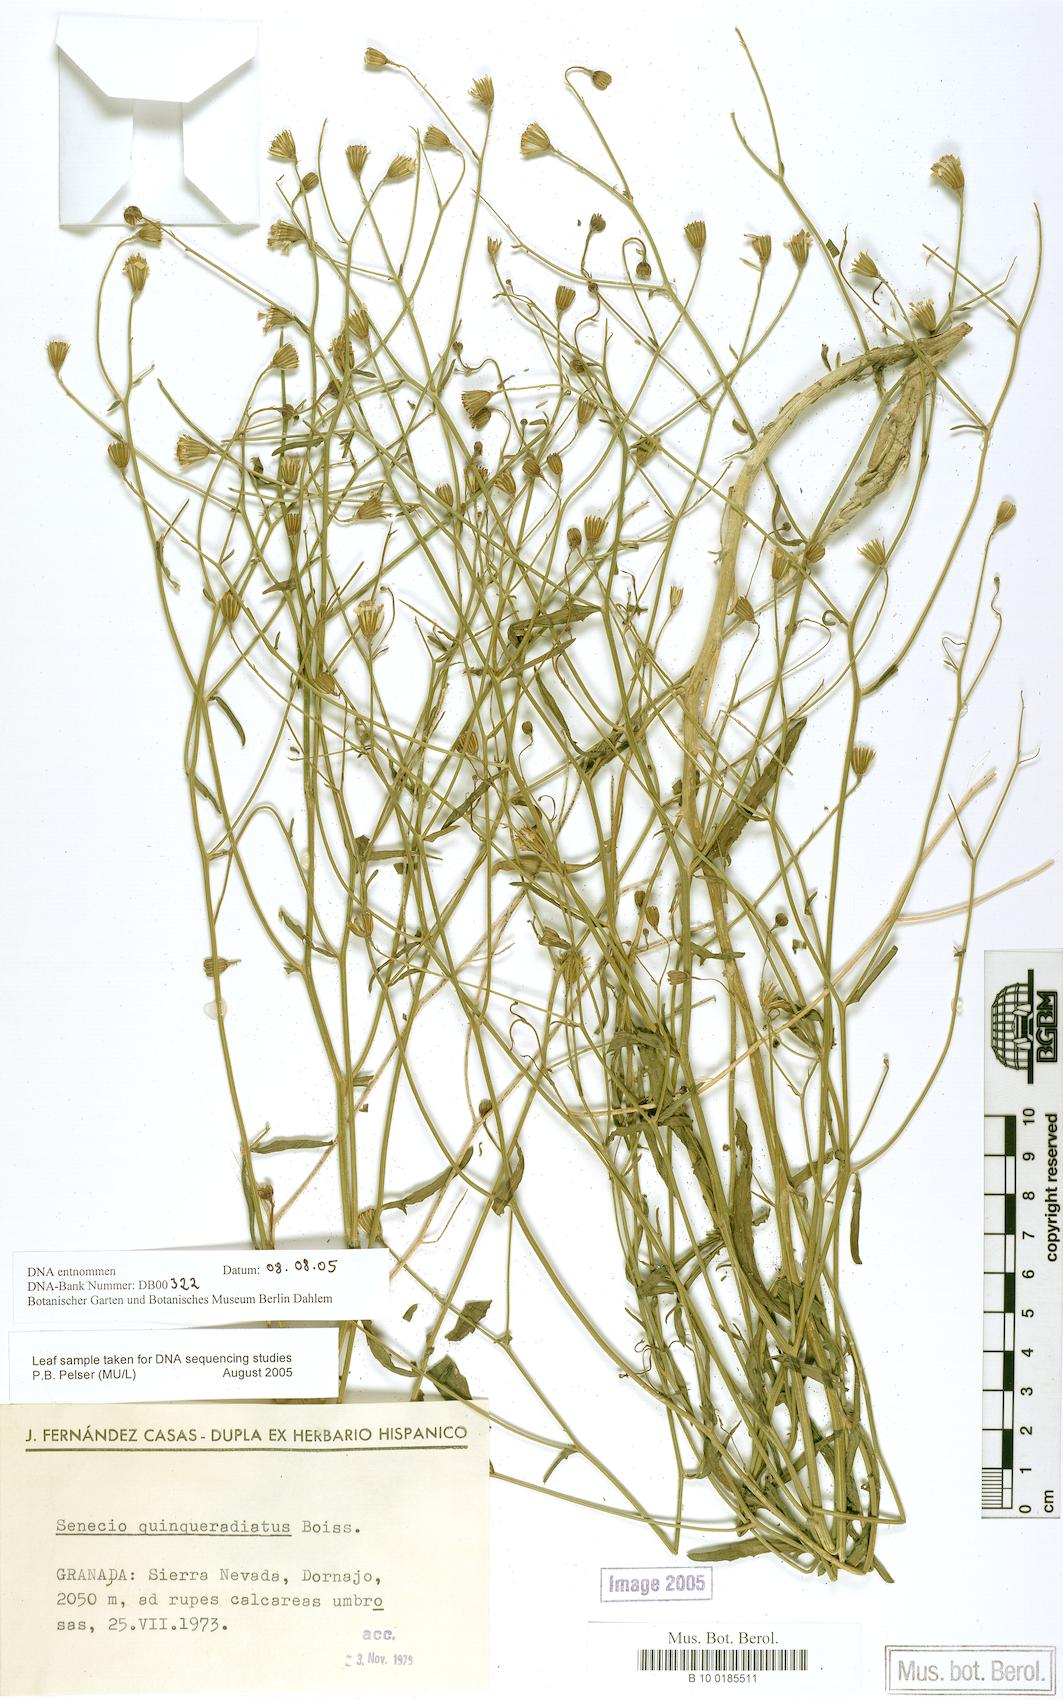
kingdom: Plantae
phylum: Tracheophyta
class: Magnoliopsida
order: Asterales
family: Asteraceae
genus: Senecio
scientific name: Senecio quinqueradiatus
